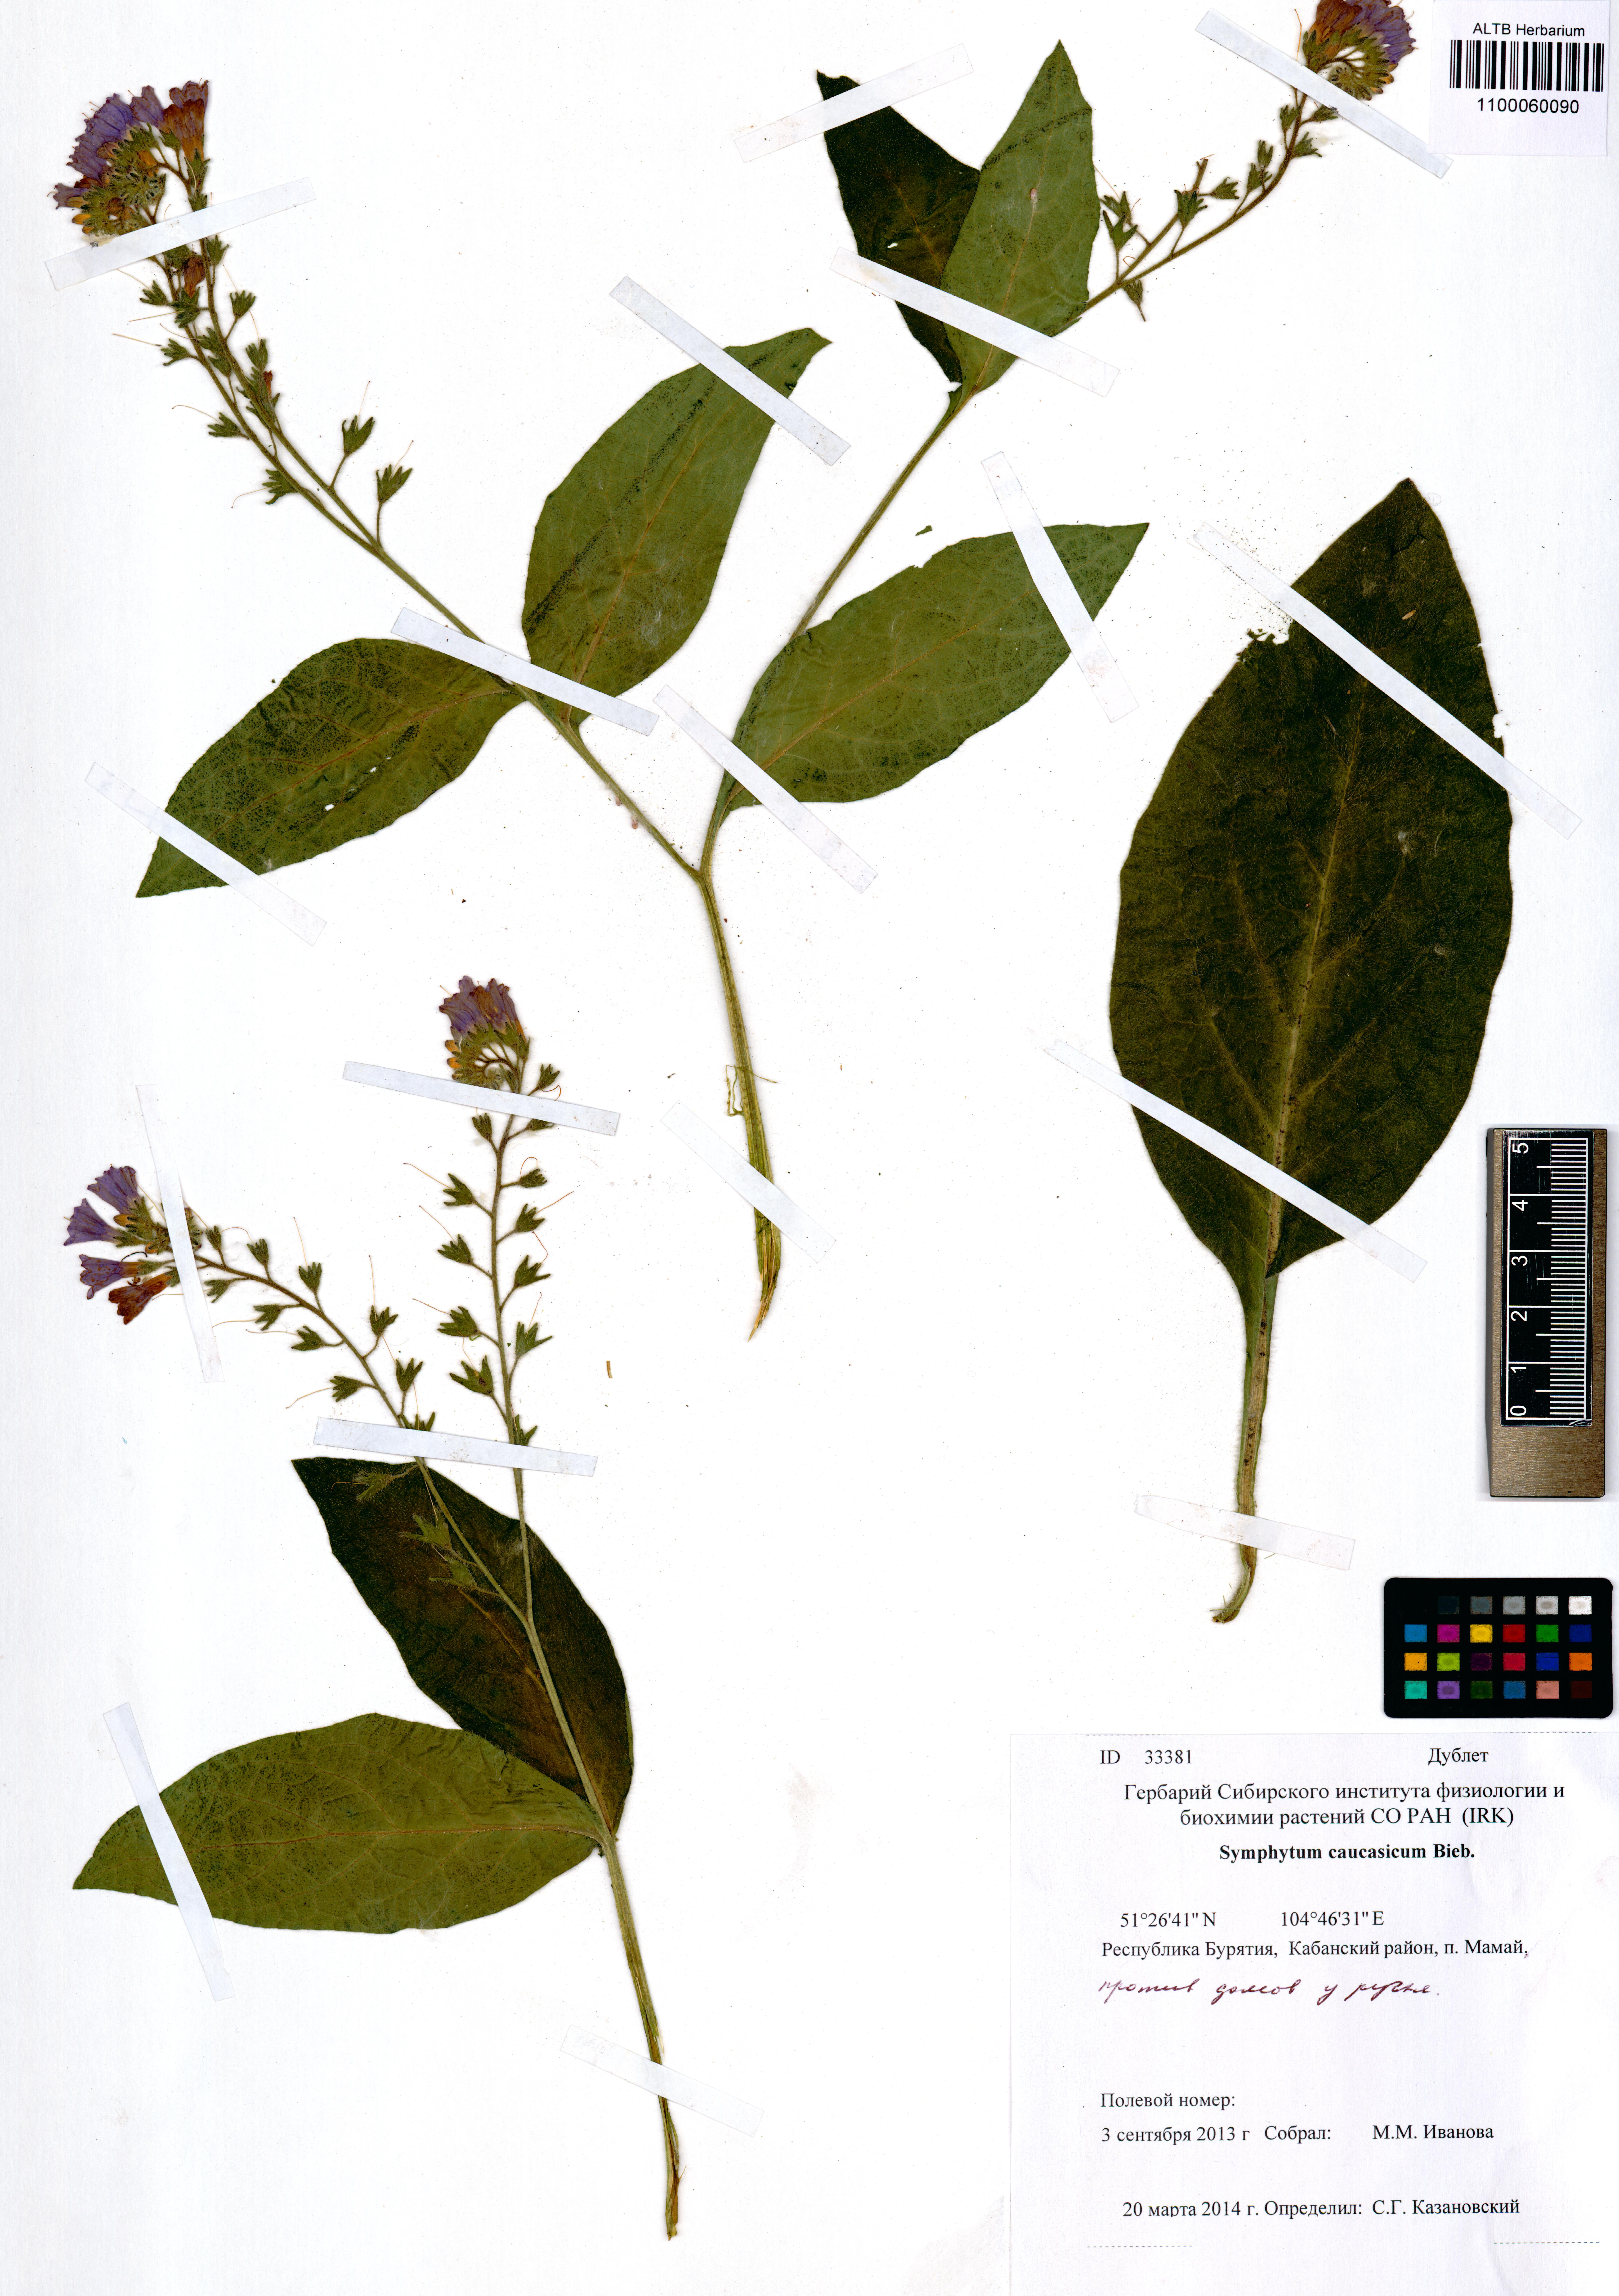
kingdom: Plantae
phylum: Tracheophyta
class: Magnoliopsida
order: Boraginales
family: Boraginaceae
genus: Symphytum
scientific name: Symphytum caucasicum
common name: Caucasian comfrey
